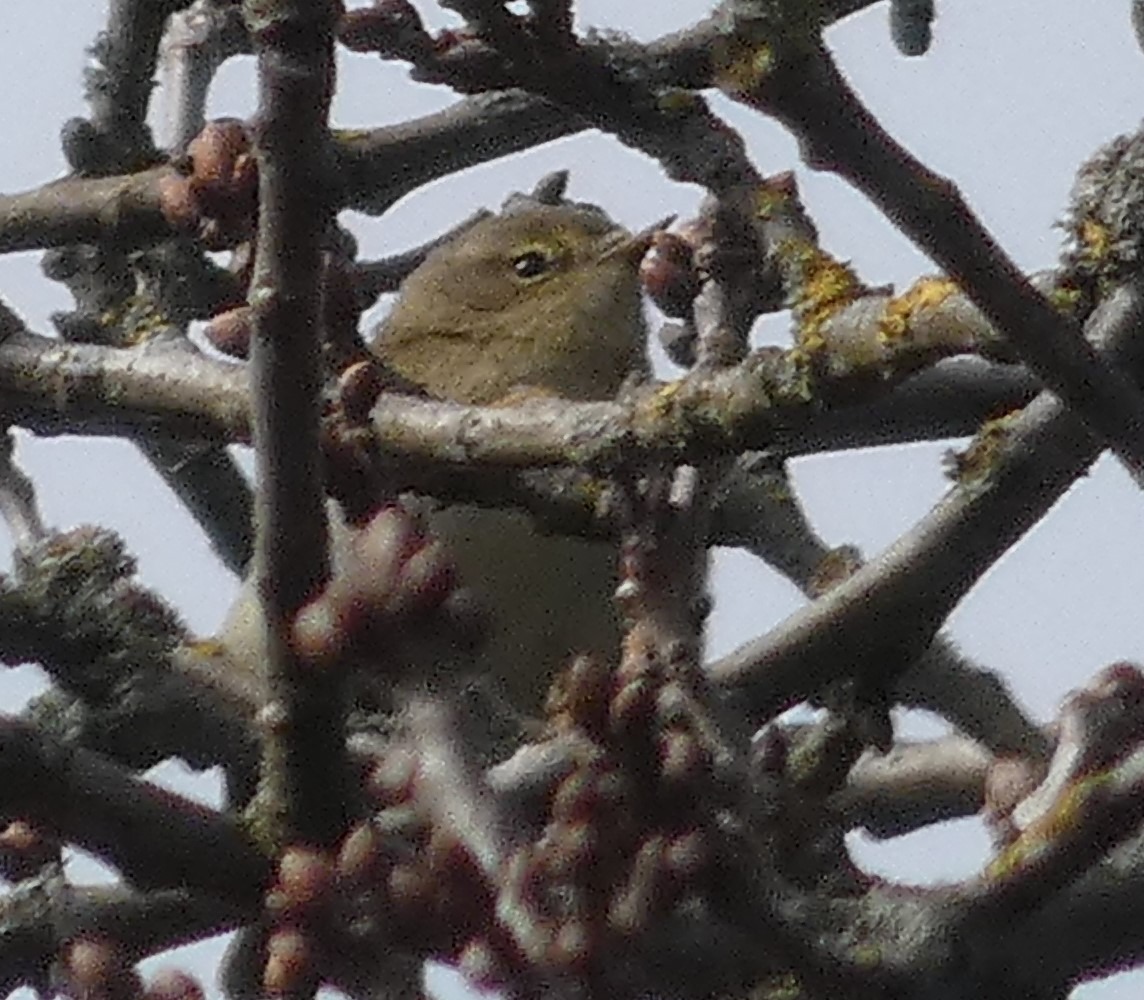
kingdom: Animalia
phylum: Chordata
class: Aves
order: Passeriformes
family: Phylloscopidae
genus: Phylloscopus
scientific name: Phylloscopus collybita
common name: Gransanger
